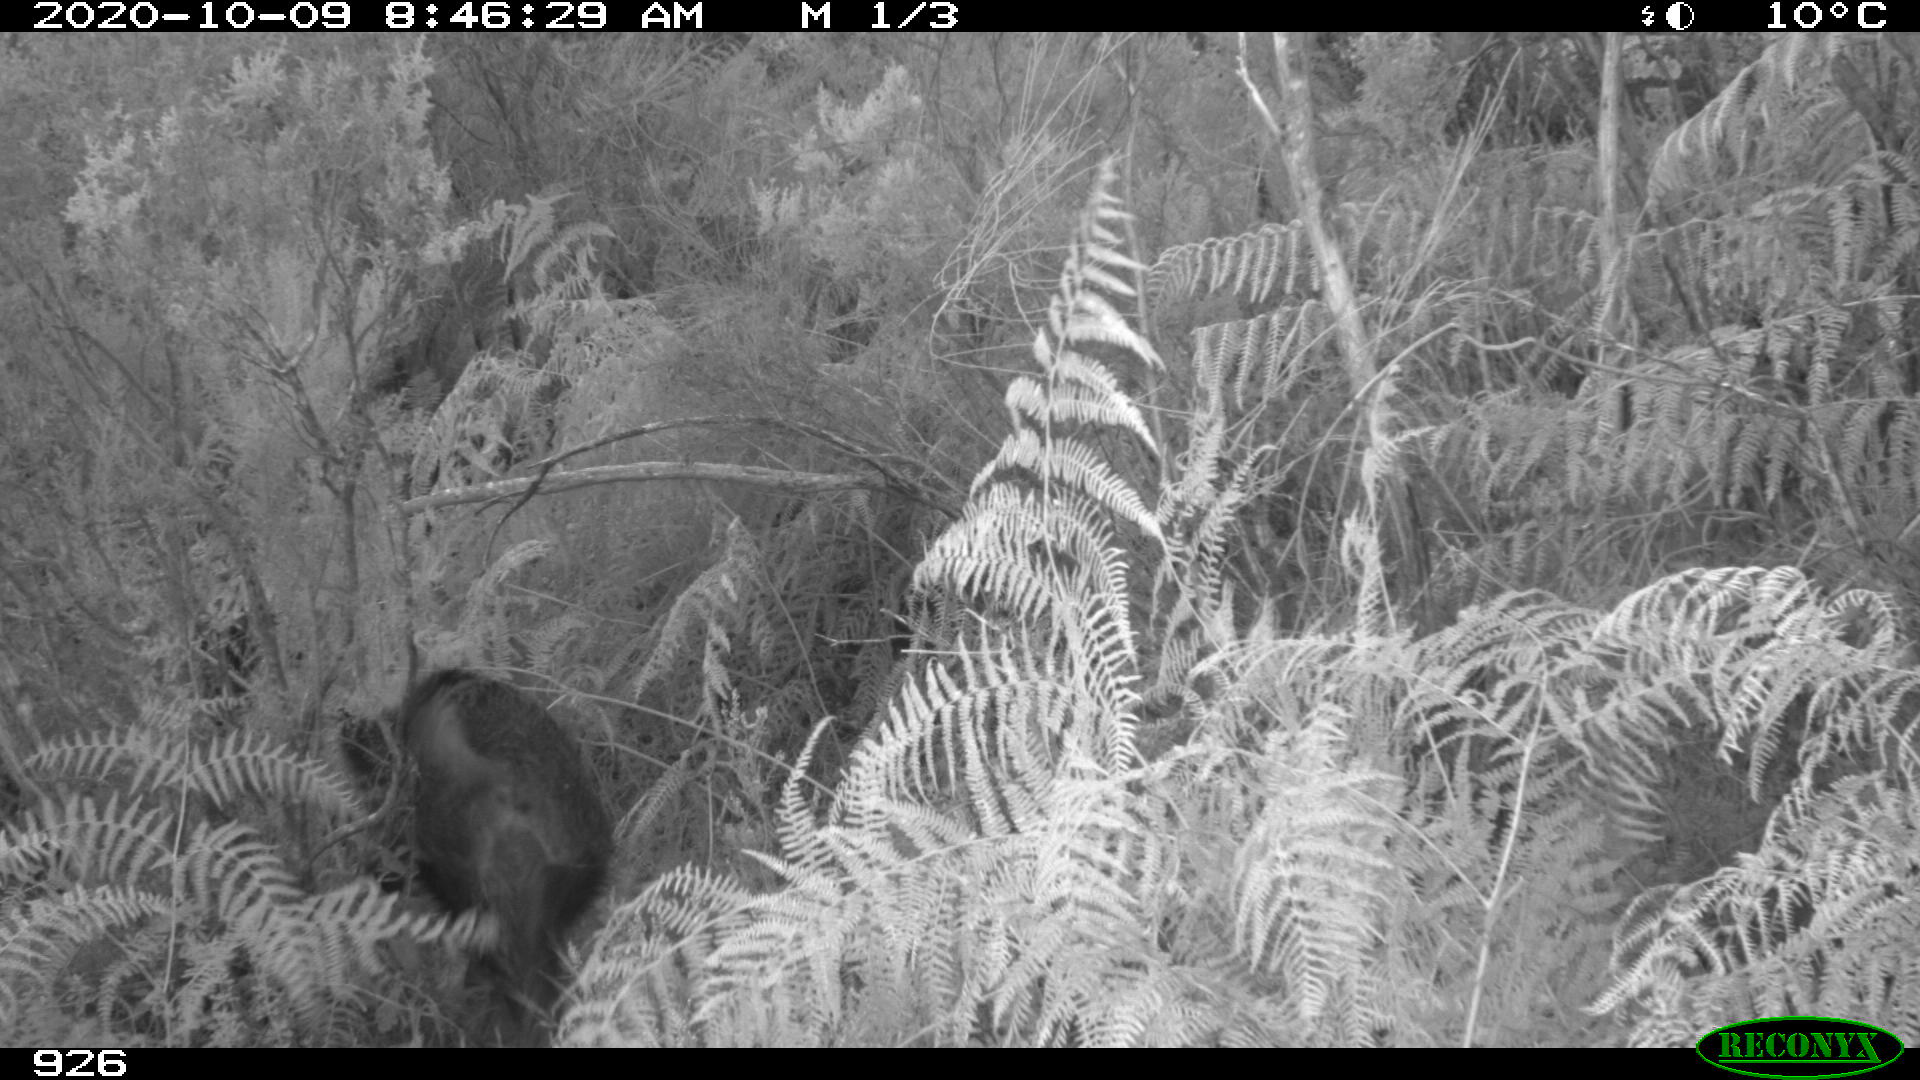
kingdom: Animalia
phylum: Chordata
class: Mammalia
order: Artiodactyla
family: Suidae
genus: Sus
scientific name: Sus scrofa
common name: Wild boar
